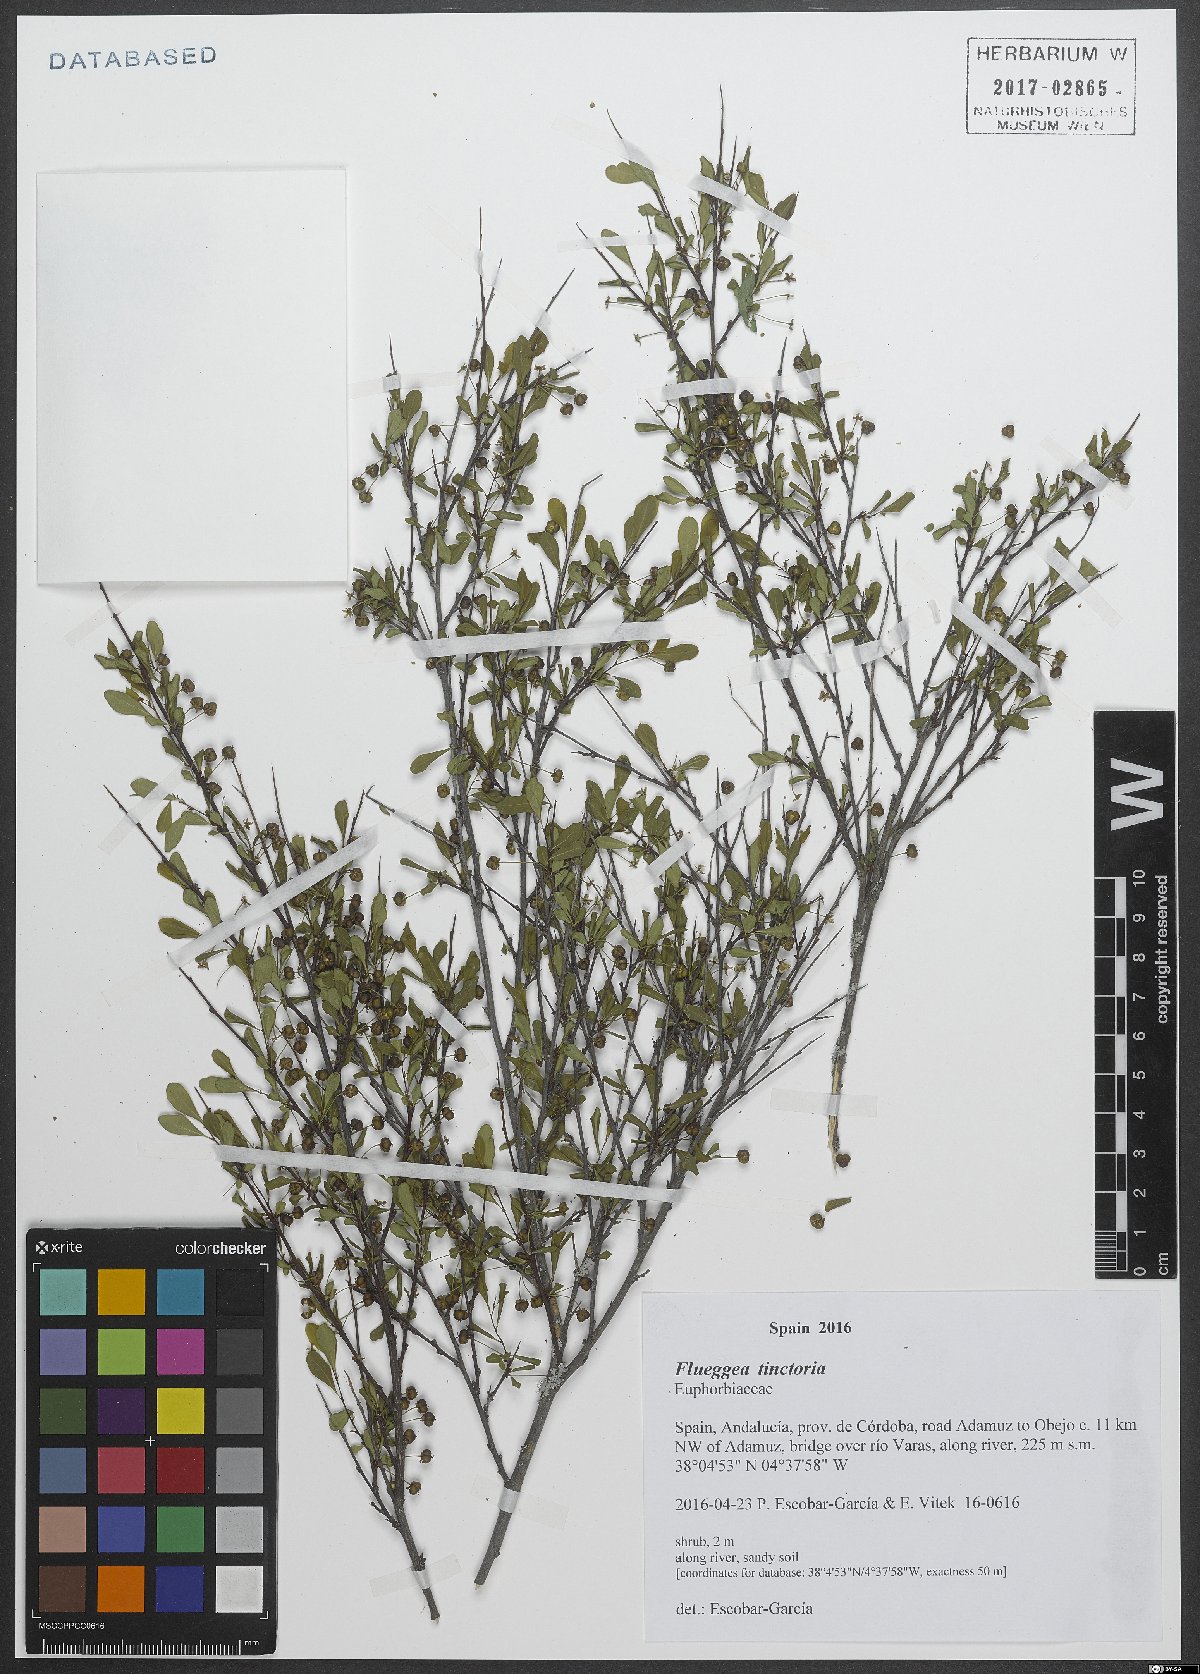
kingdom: Plantae
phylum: Tracheophyta
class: Magnoliopsida
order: Malpighiales
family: Phyllanthaceae
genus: Flueggea
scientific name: Flueggea tinctoria
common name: Tamujo
